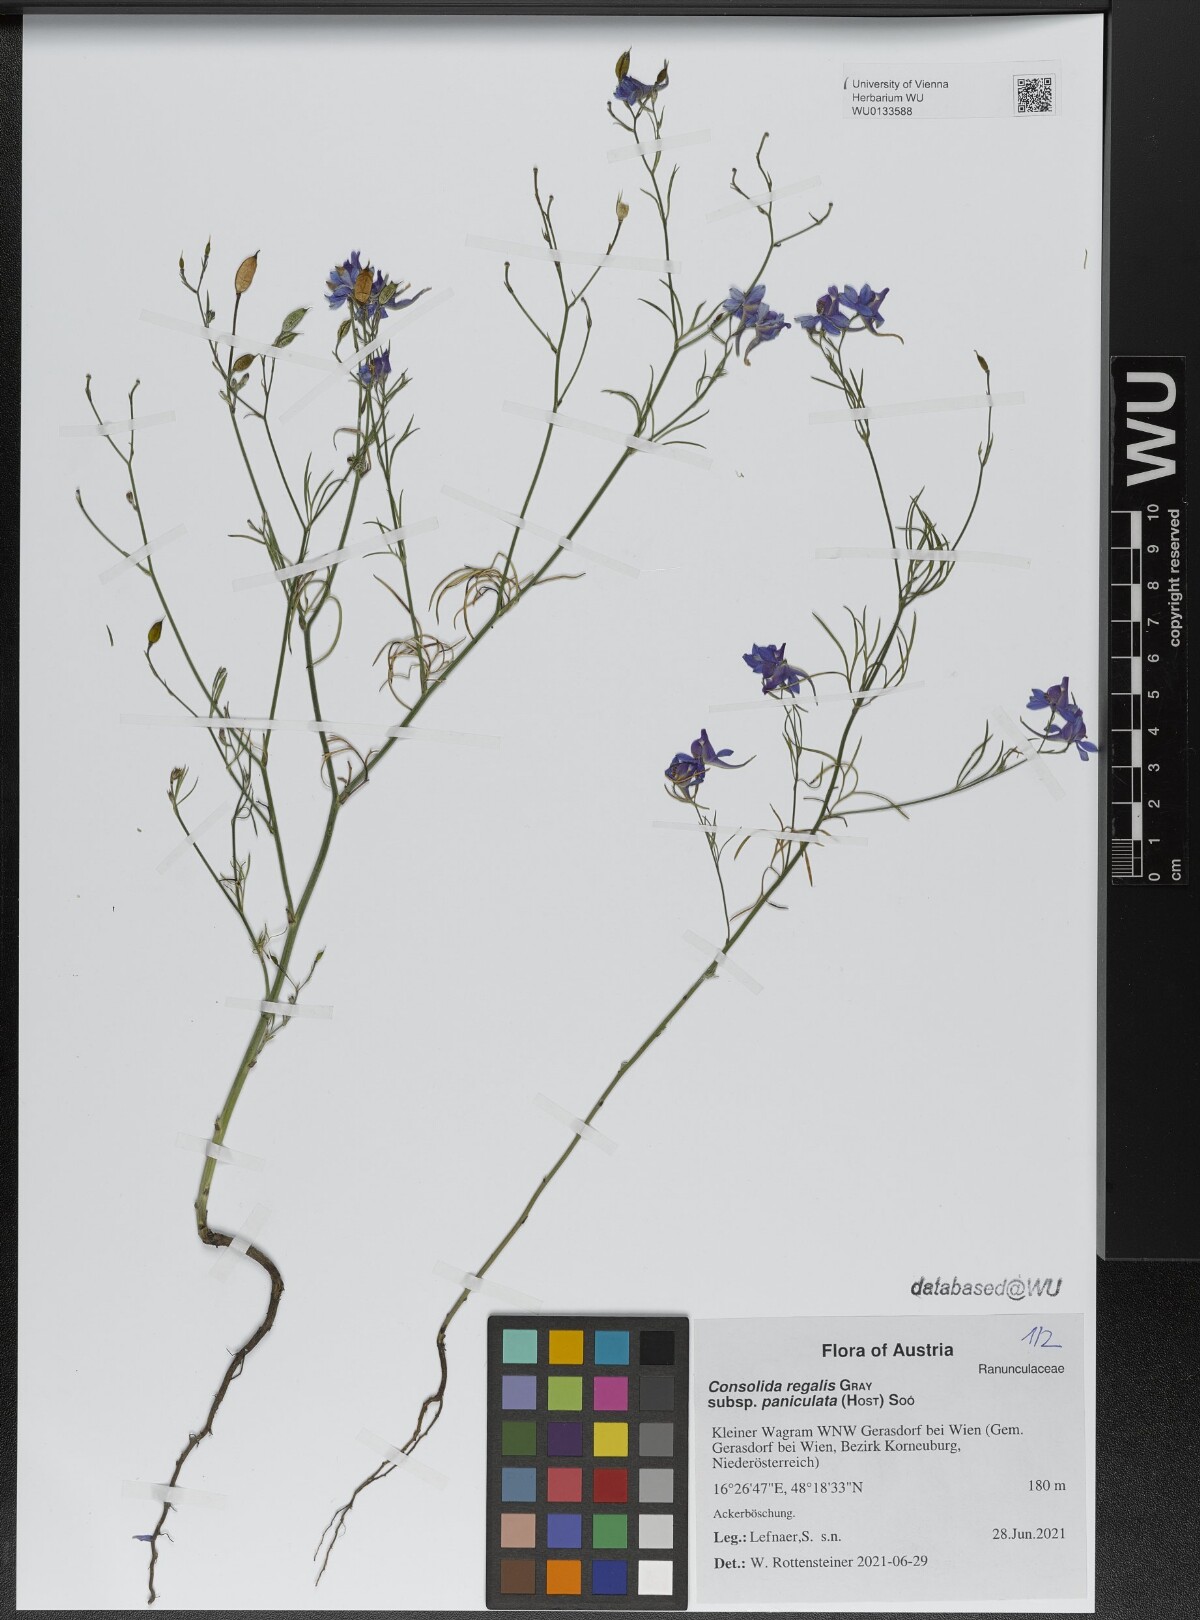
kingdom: Plantae
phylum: Tracheophyta
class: Magnoliopsida
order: Ranunculales
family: Ranunculaceae
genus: Delphinium
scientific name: Delphinium consolida
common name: Branching larkspur
